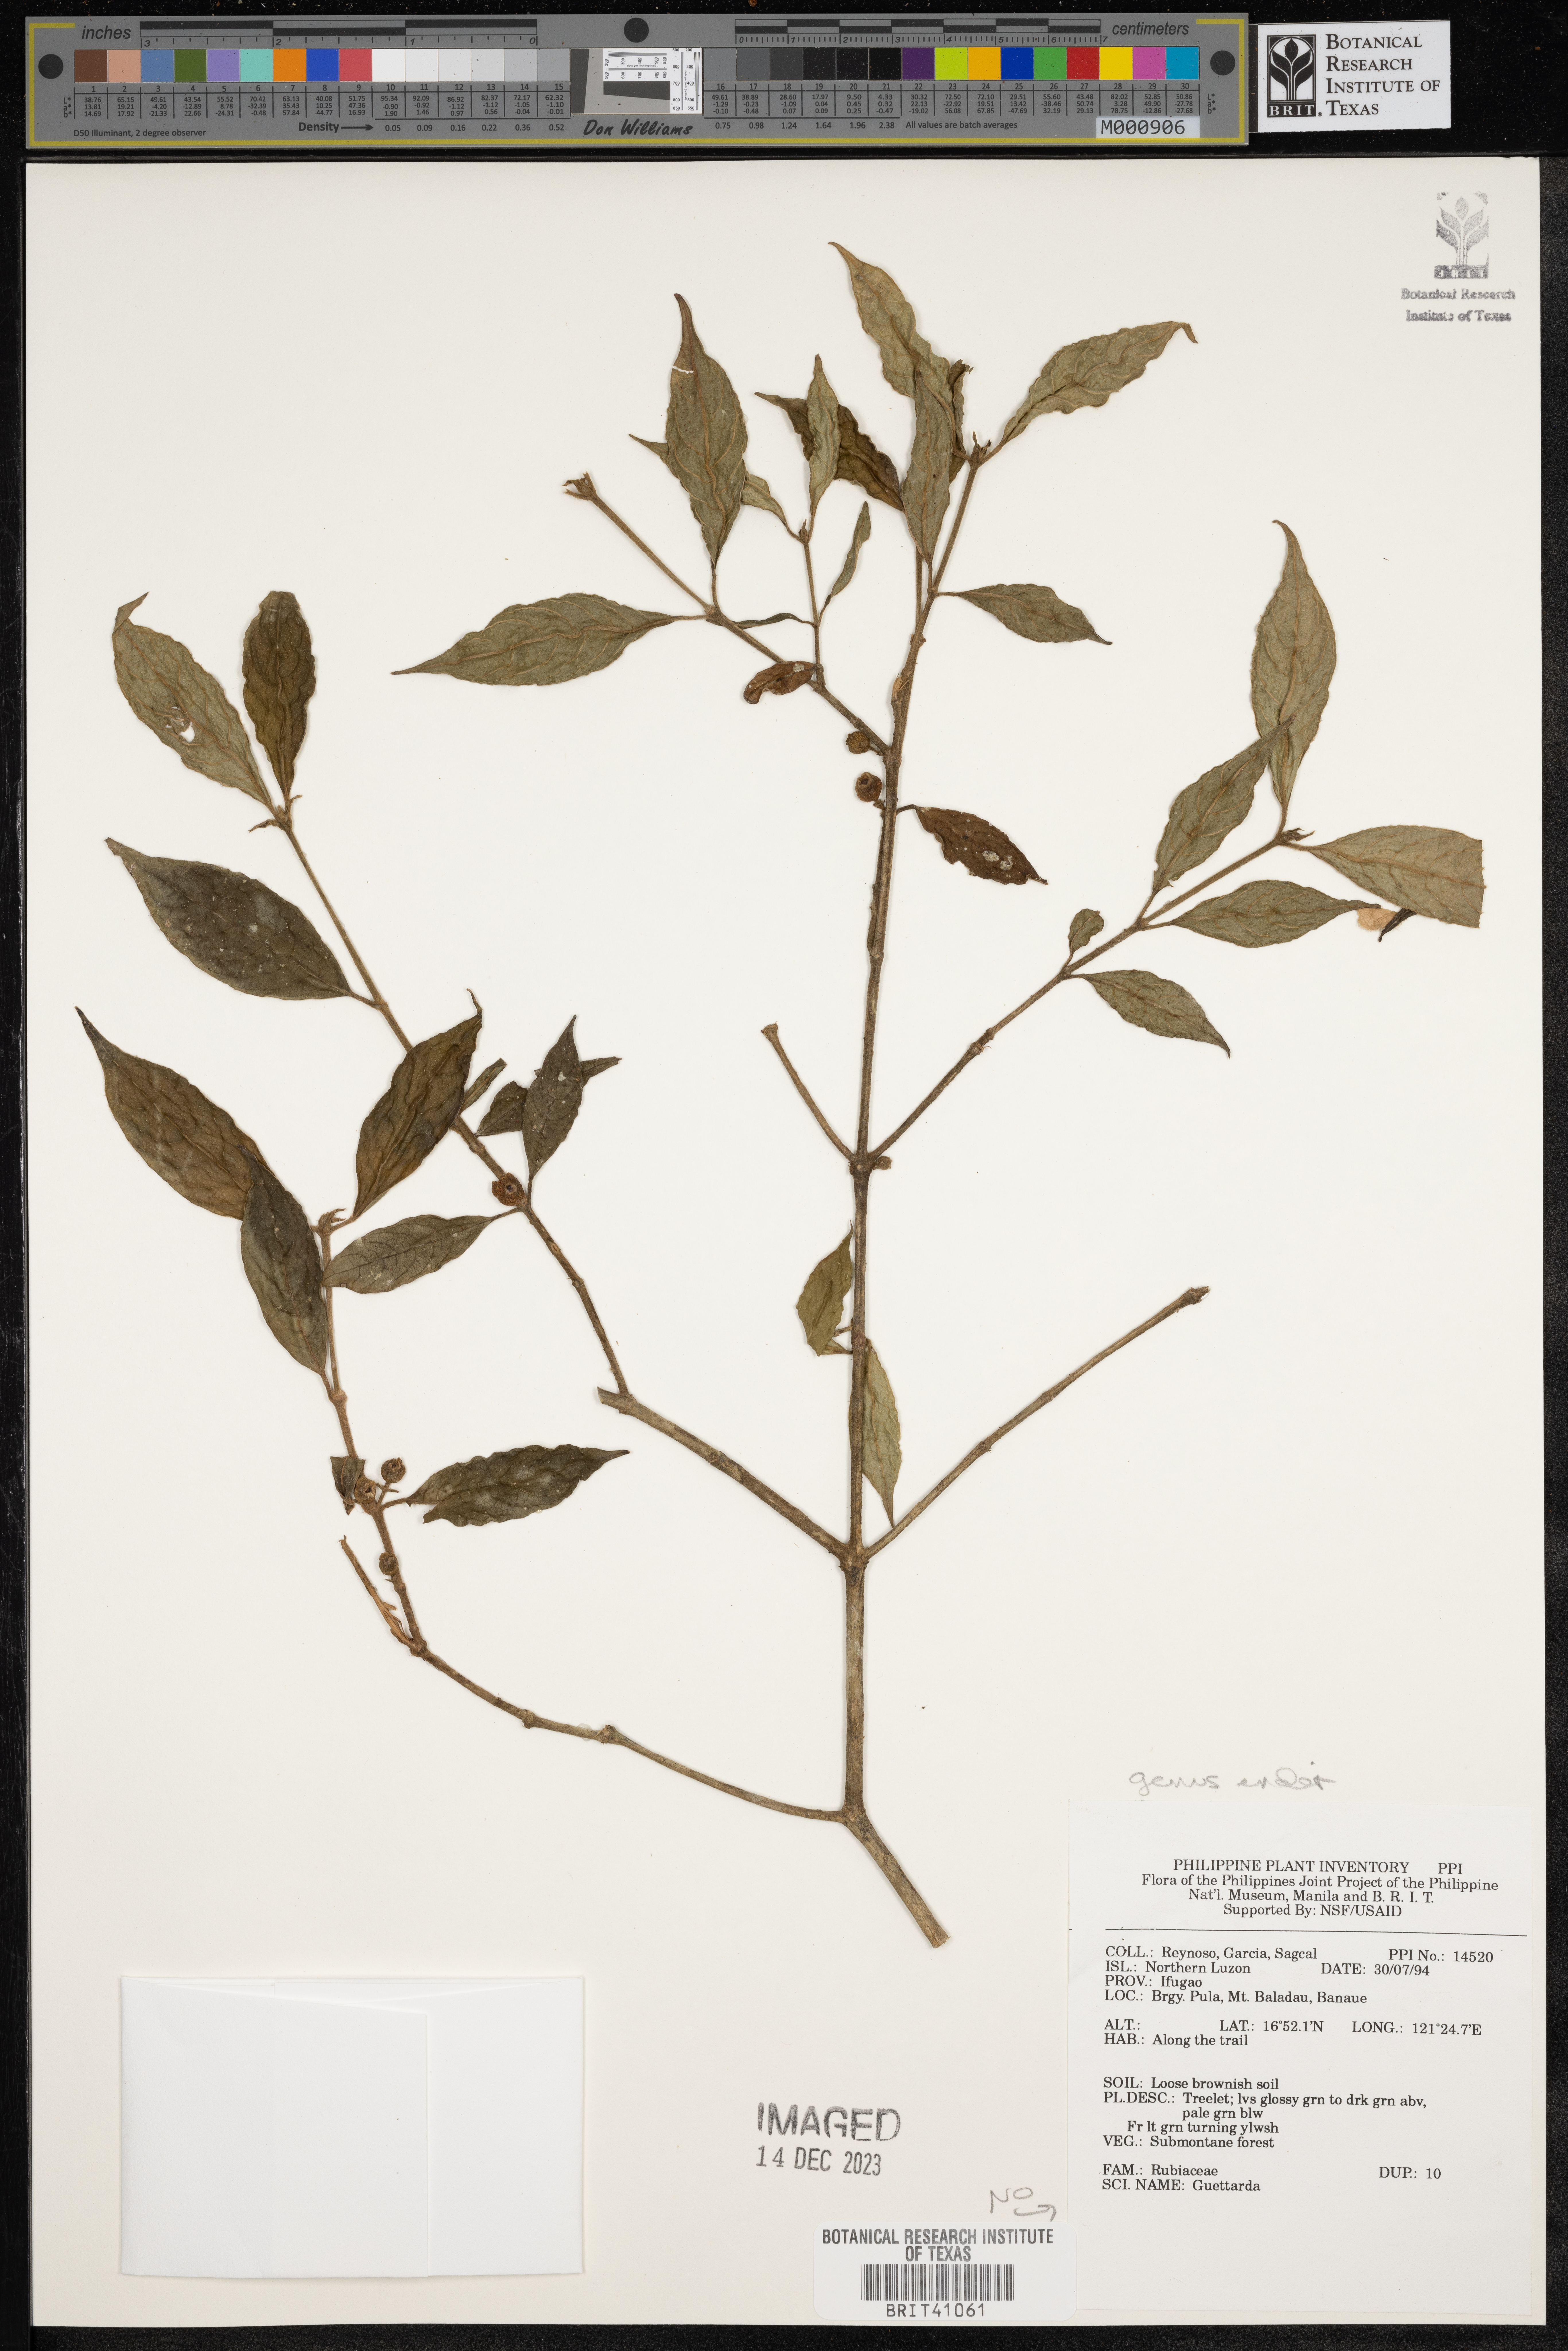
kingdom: Plantae
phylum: Tracheophyta
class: Magnoliopsida
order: Gentianales
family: Rubiaceae
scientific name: Rubiaceae
